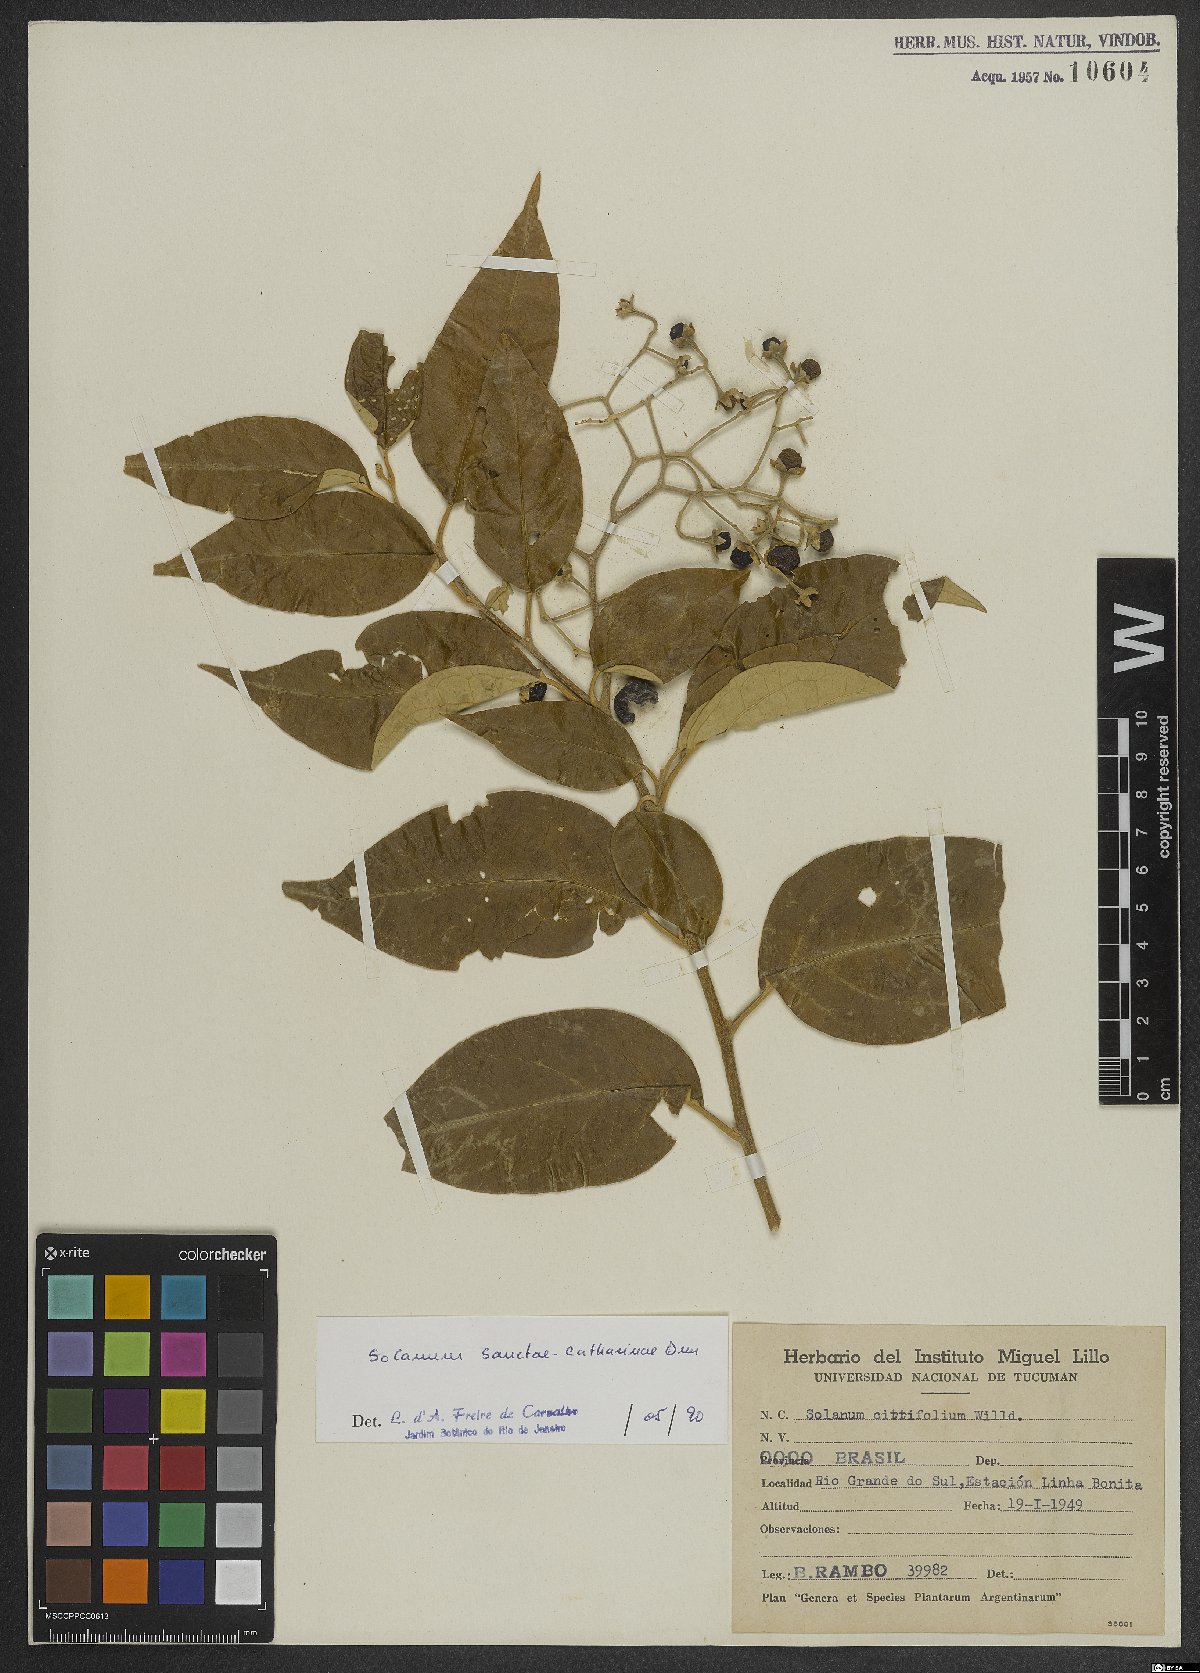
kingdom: Plantae
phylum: Tracheophyta
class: Magnoliopsida
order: Solanales
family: Solanaceae
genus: Solanum
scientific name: Solanum sanctae-catharinae
